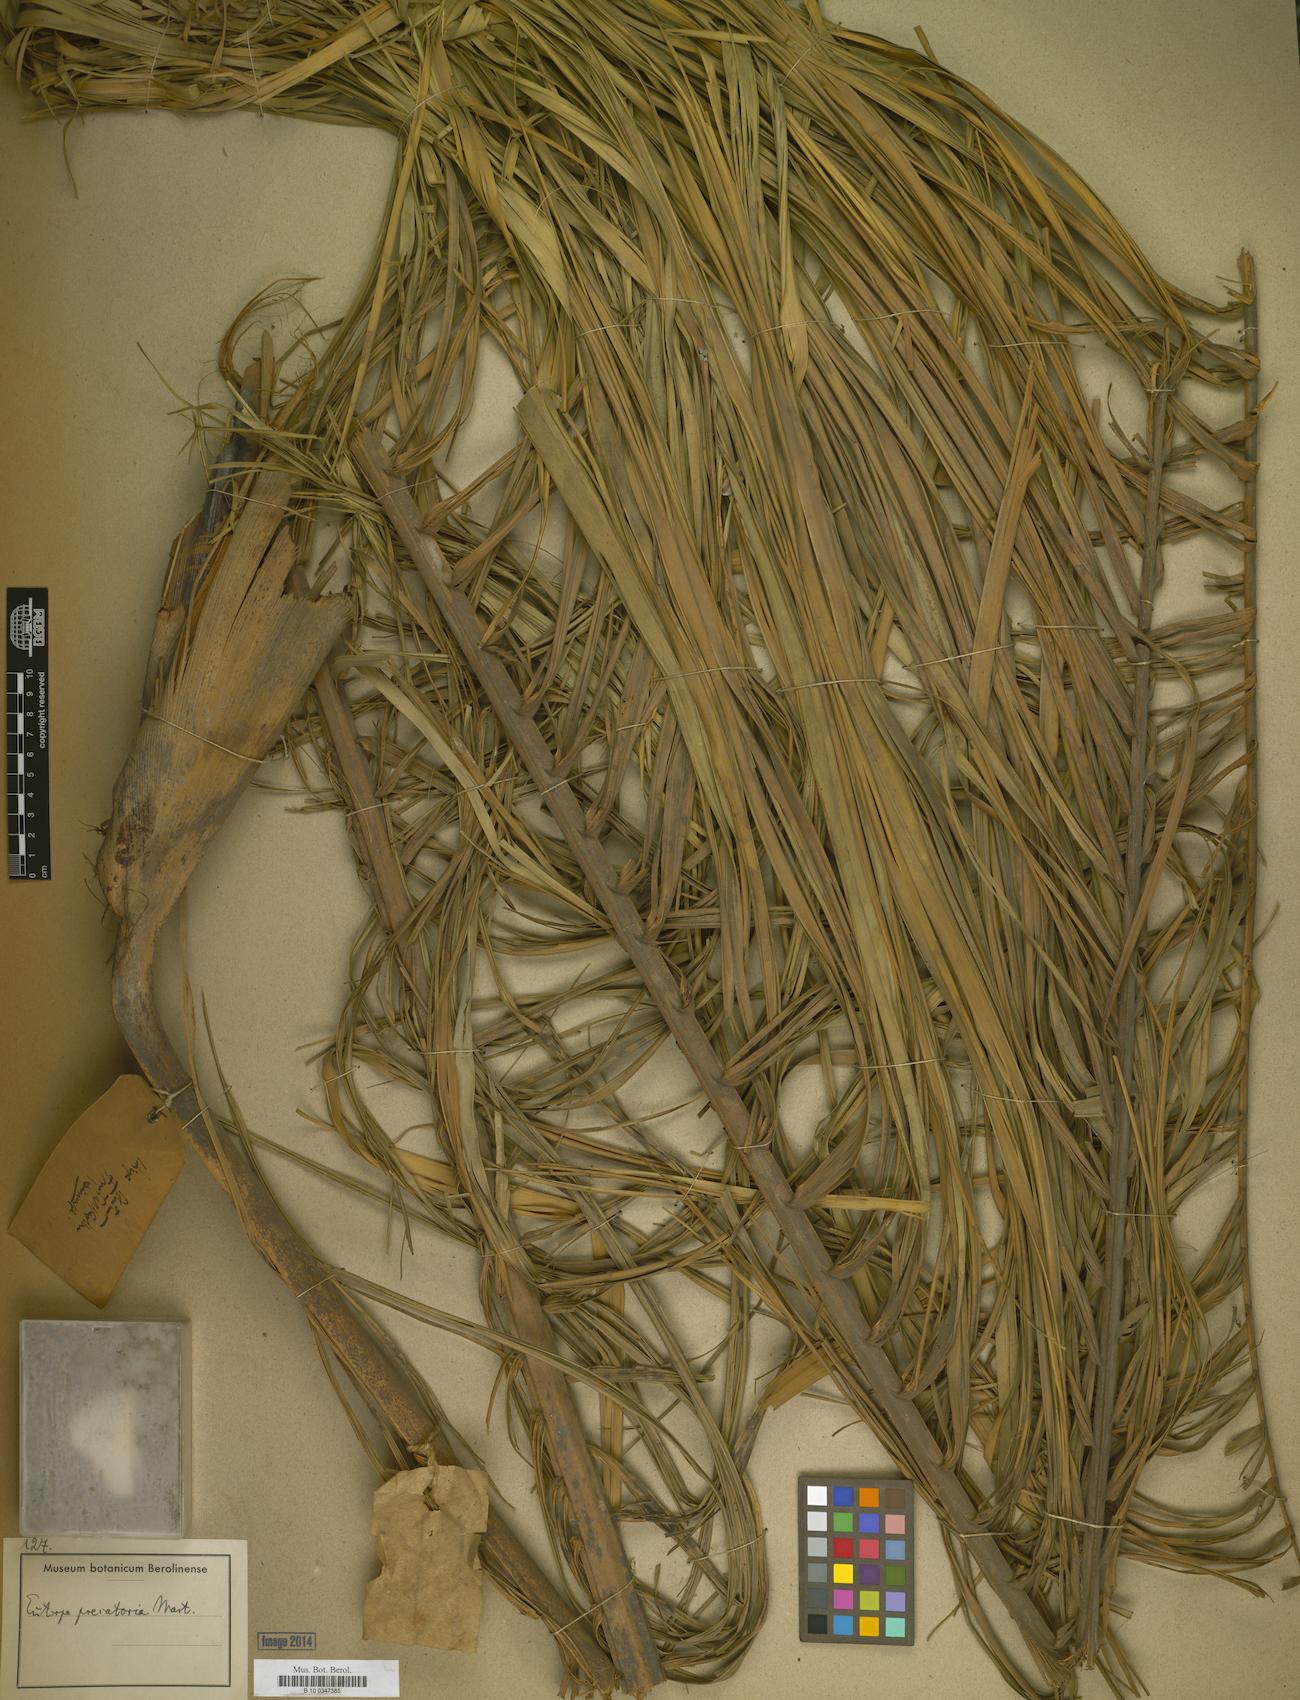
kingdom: Plantae
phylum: Tracheophyta
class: Liliopsida
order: Arecales
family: Arecaceae
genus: Euterpe
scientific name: Euterpe
